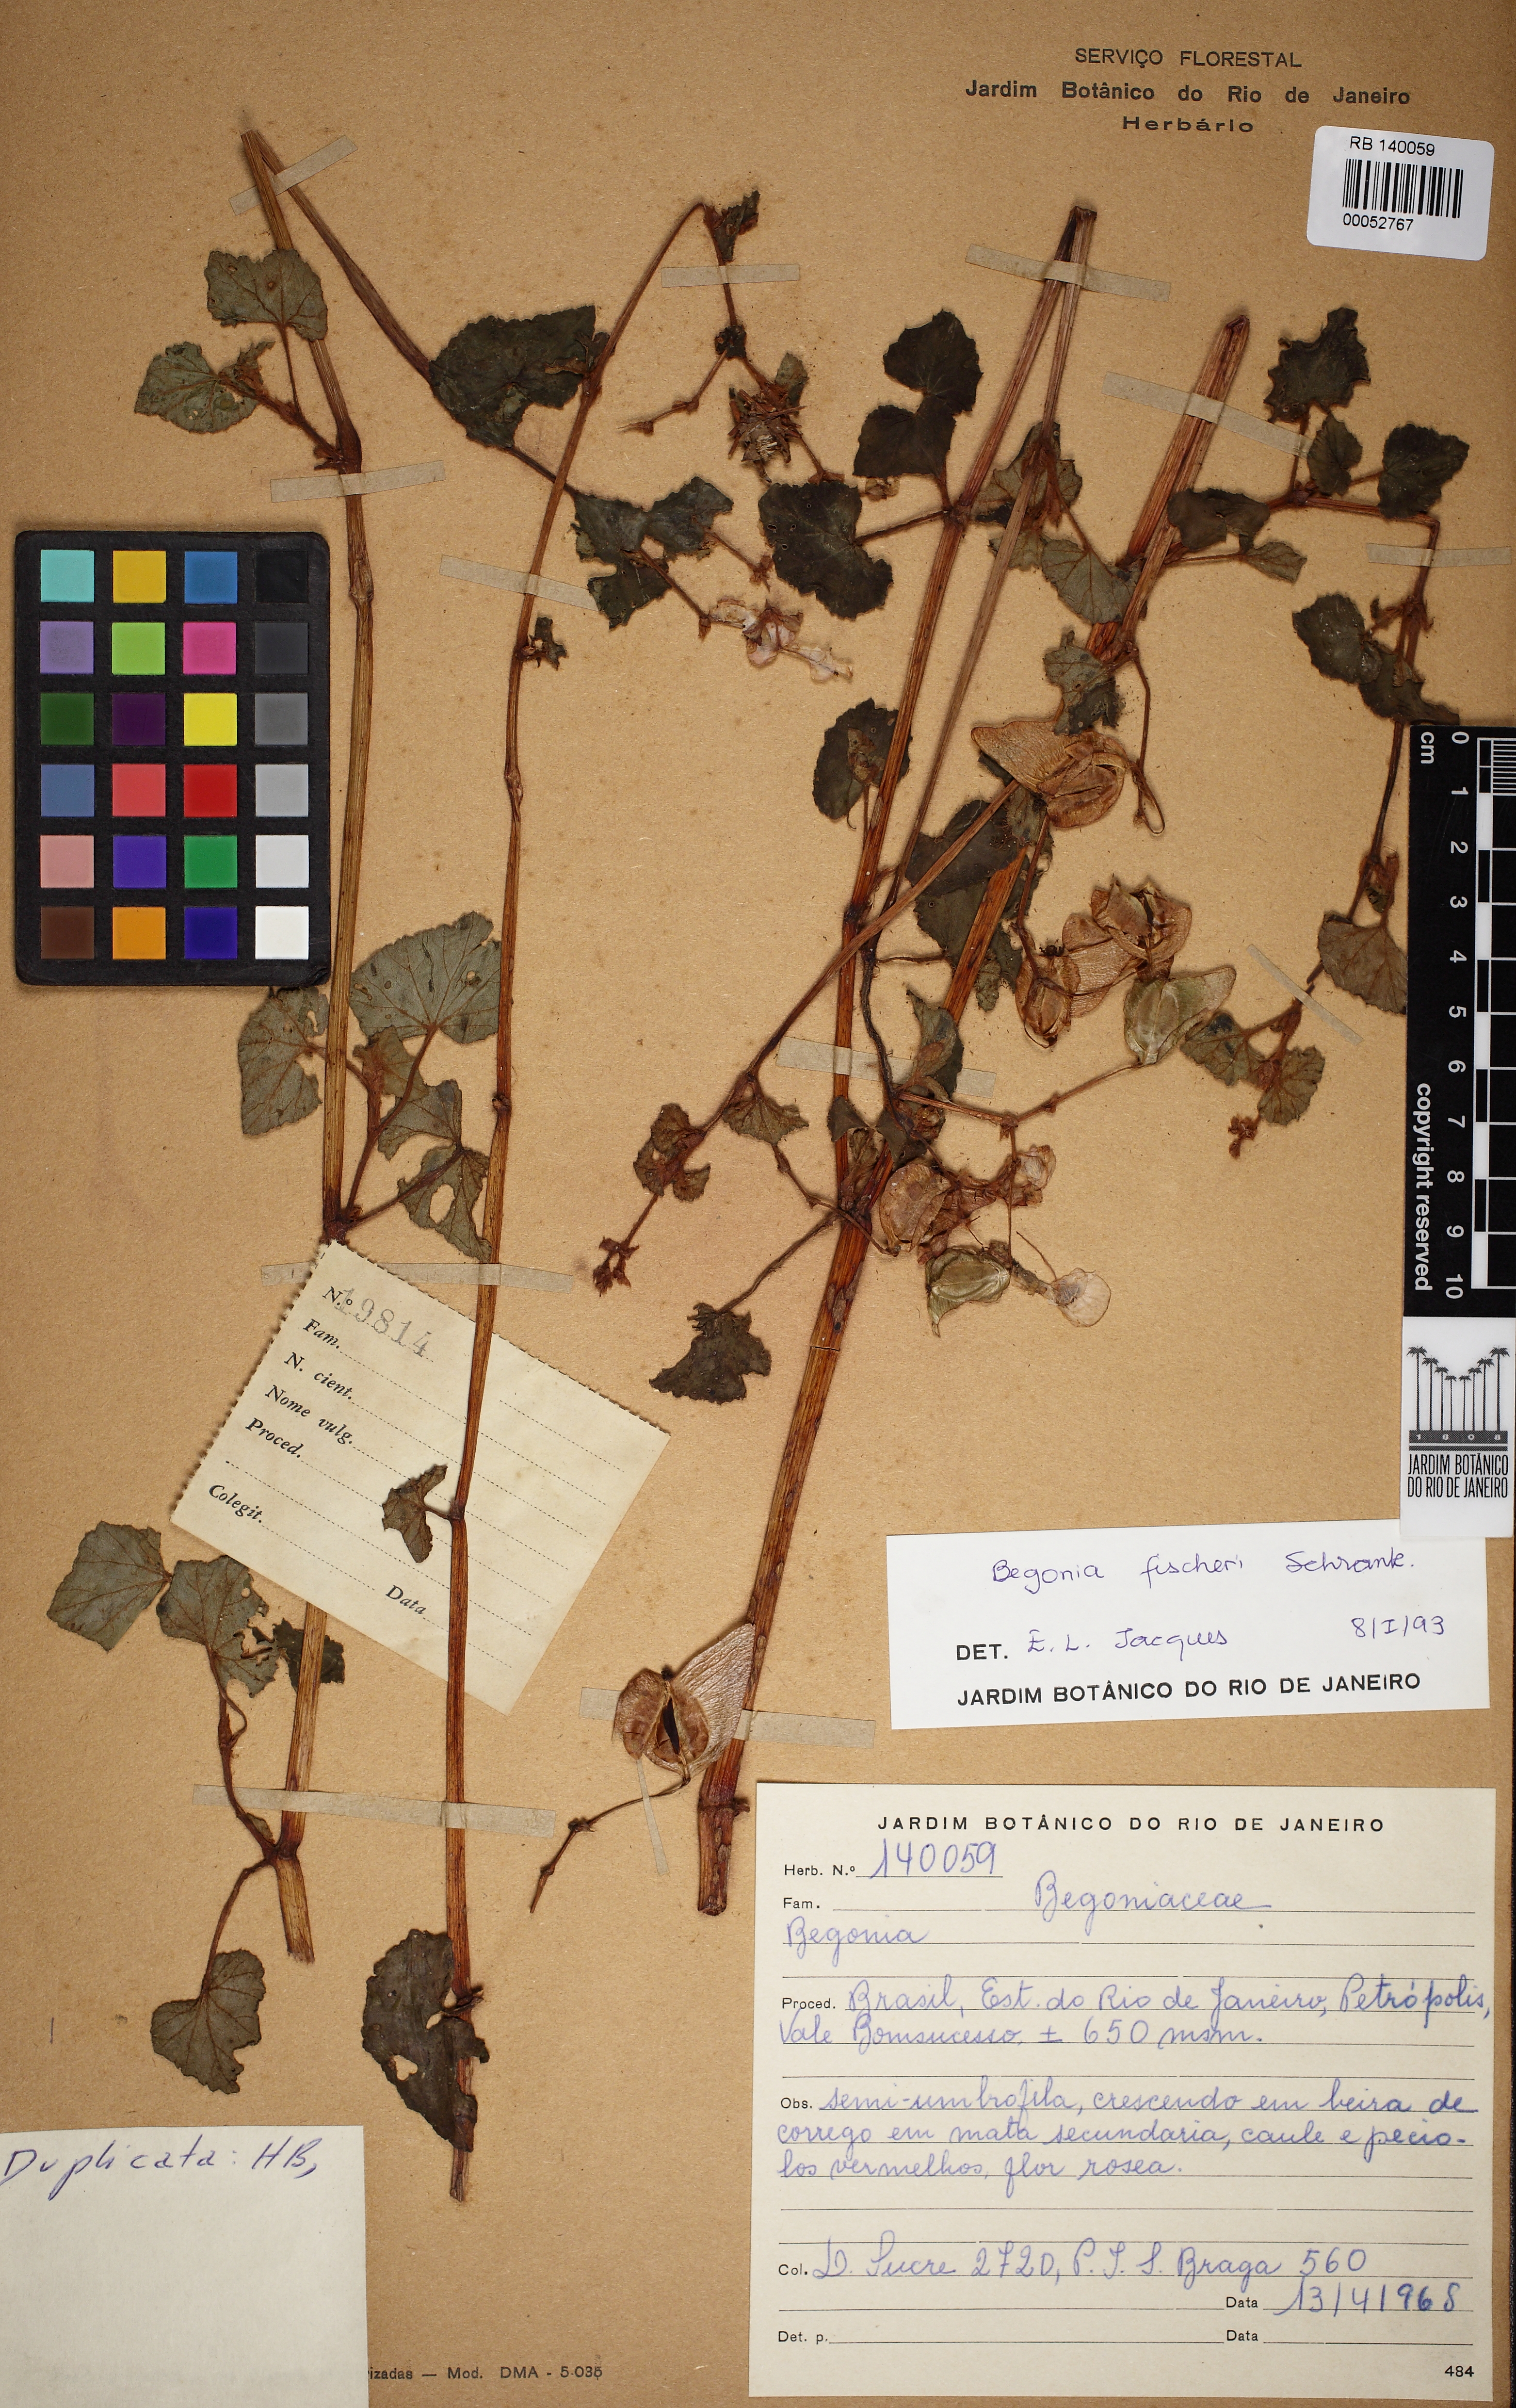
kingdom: Plantae
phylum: Tracheophyta
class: Magnoliopsida
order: Cucurbitales
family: Begoniaceae
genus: Begonia
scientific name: Begonia fischeri
